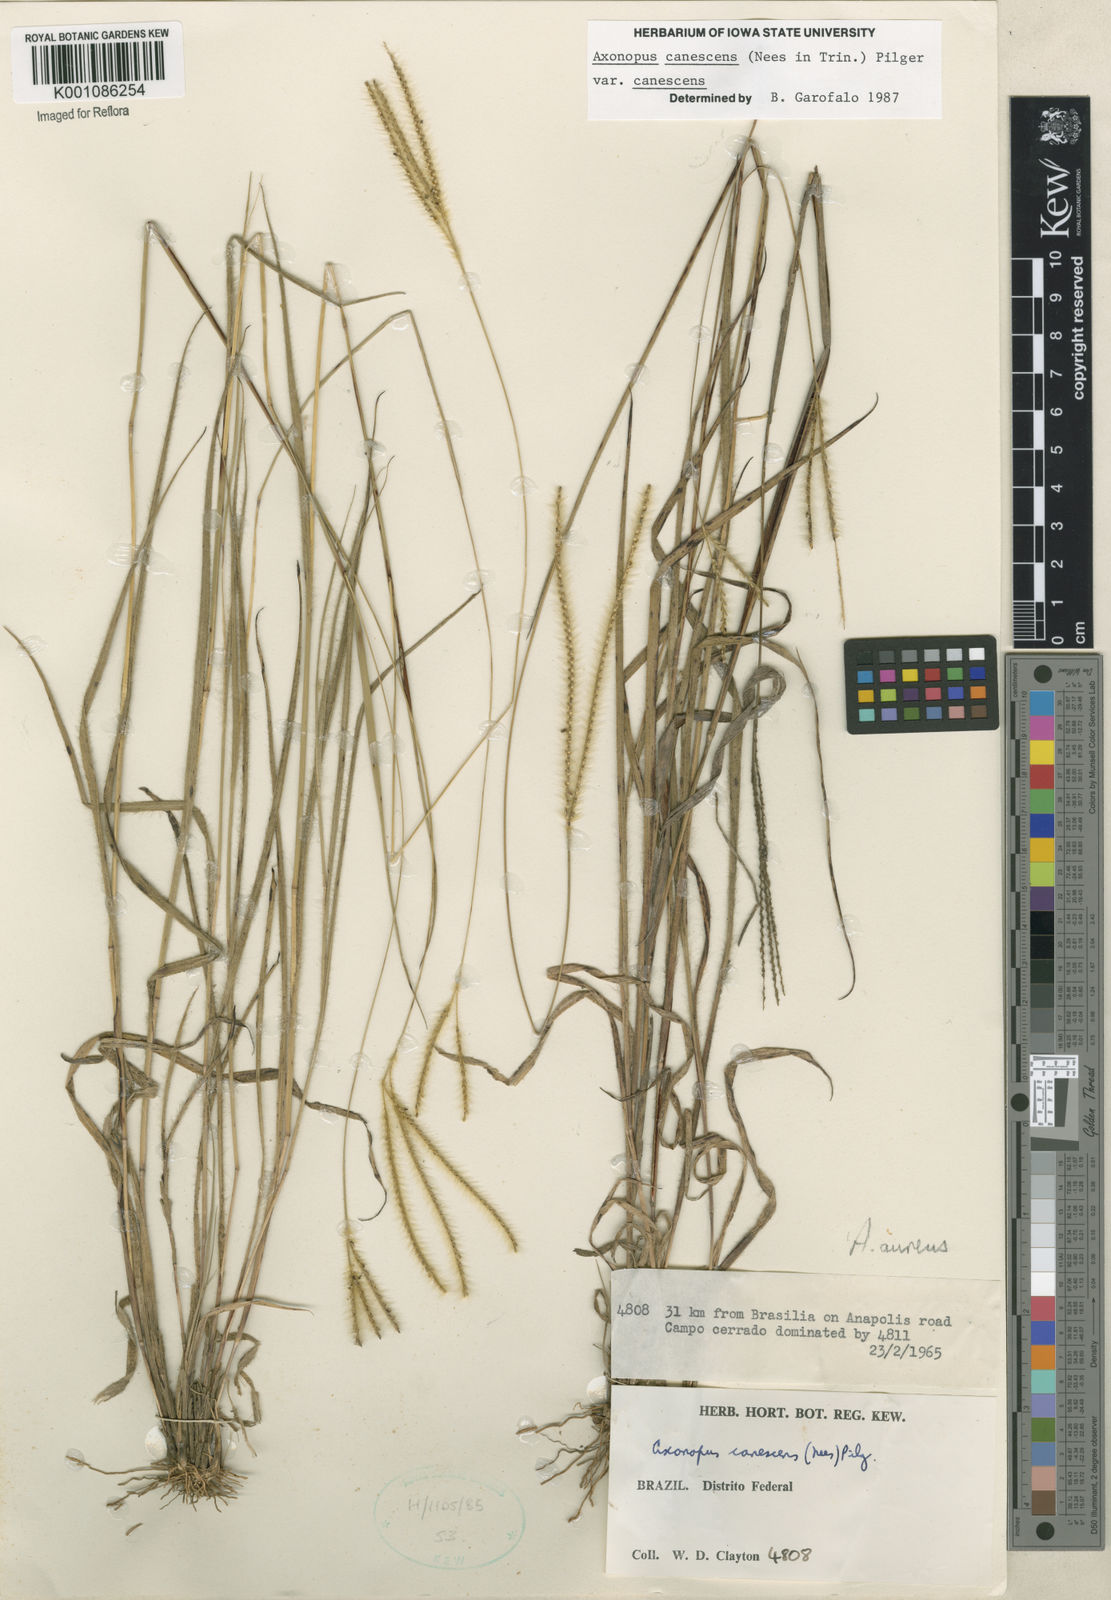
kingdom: Plantae
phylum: Tracheophyta
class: Liliopsida
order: Poales
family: Poaceae
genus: Axonopus
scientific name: Axonopus aureus
